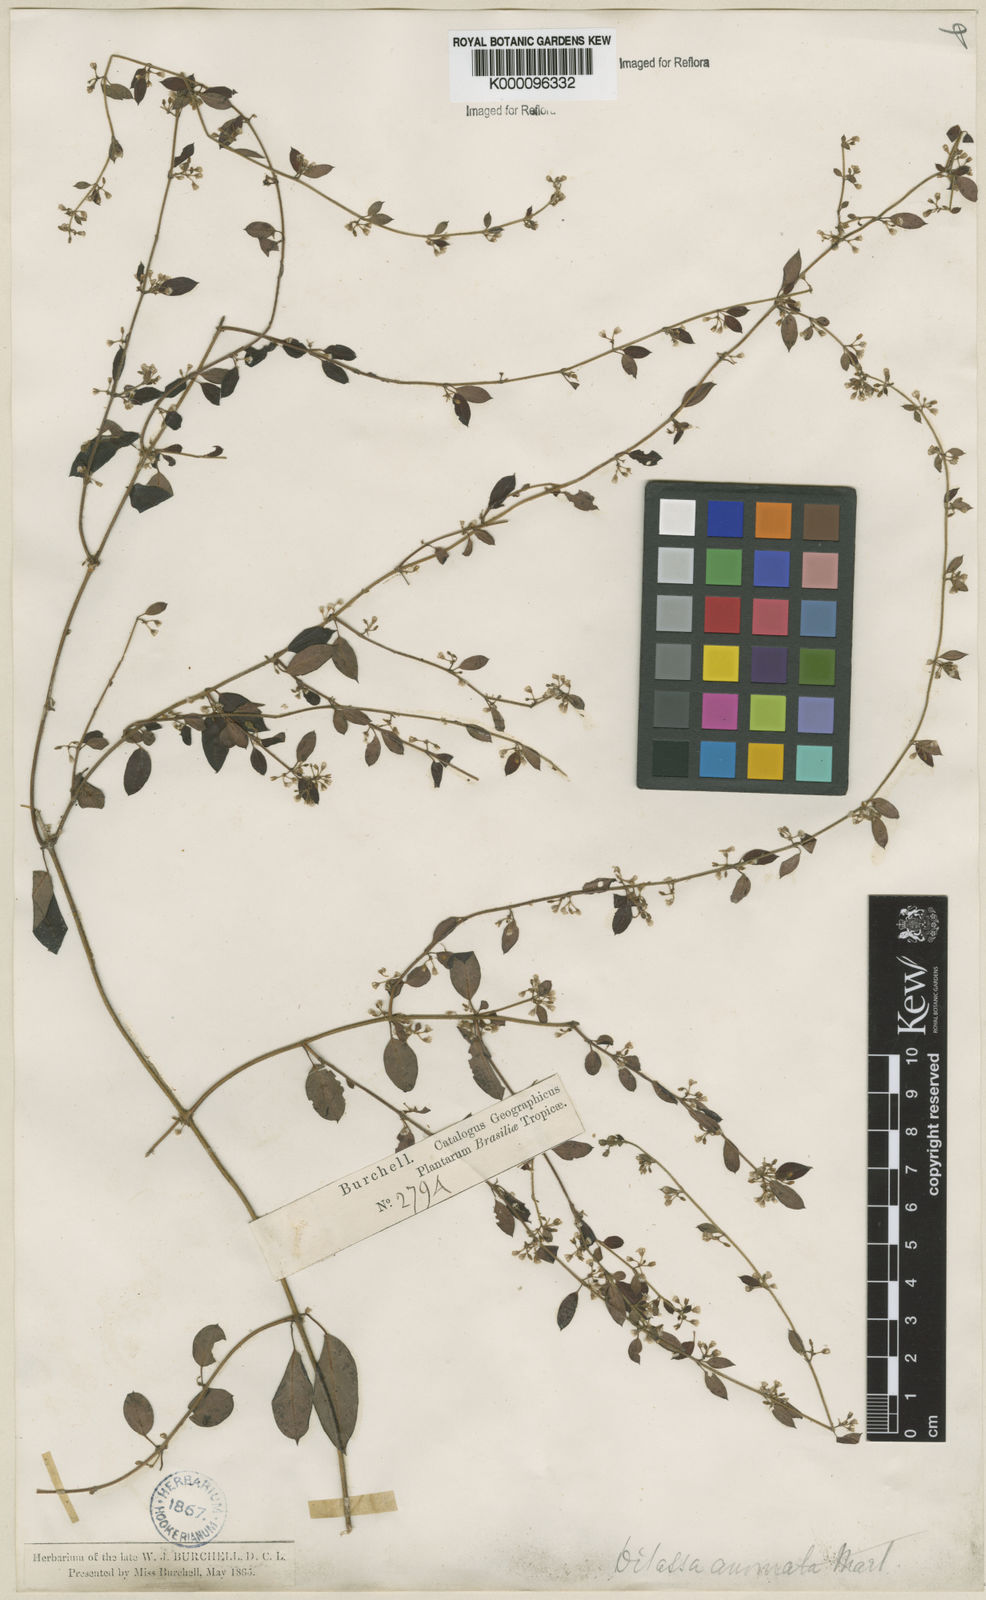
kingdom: Plantae
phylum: Tracheophyta
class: Magnoliopsida
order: Gentianales
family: Apocynaceae
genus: Metastelma
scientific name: Metastelma burchellii
